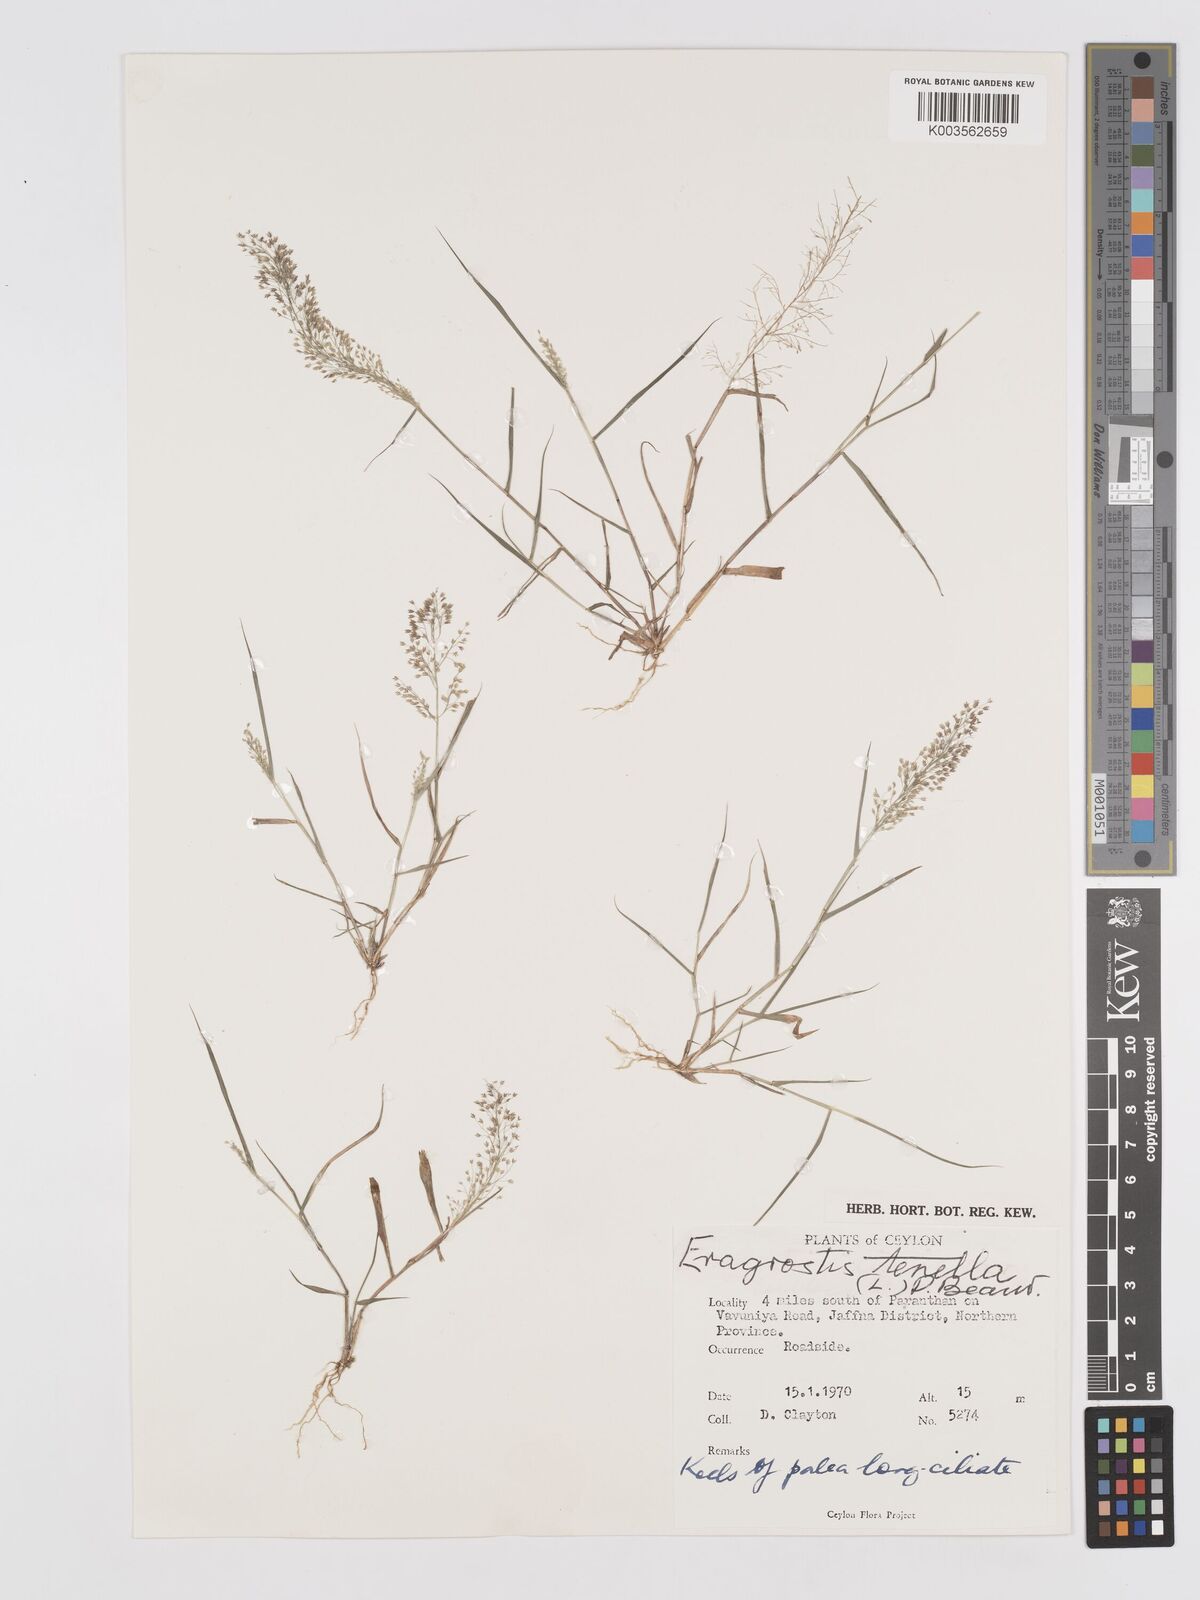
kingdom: Plantae
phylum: Tracheophyta
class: Liliopsida
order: Poales
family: Poaceae
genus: Eragrostis
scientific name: Eragrostis tenella
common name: Japanese lovegrass
